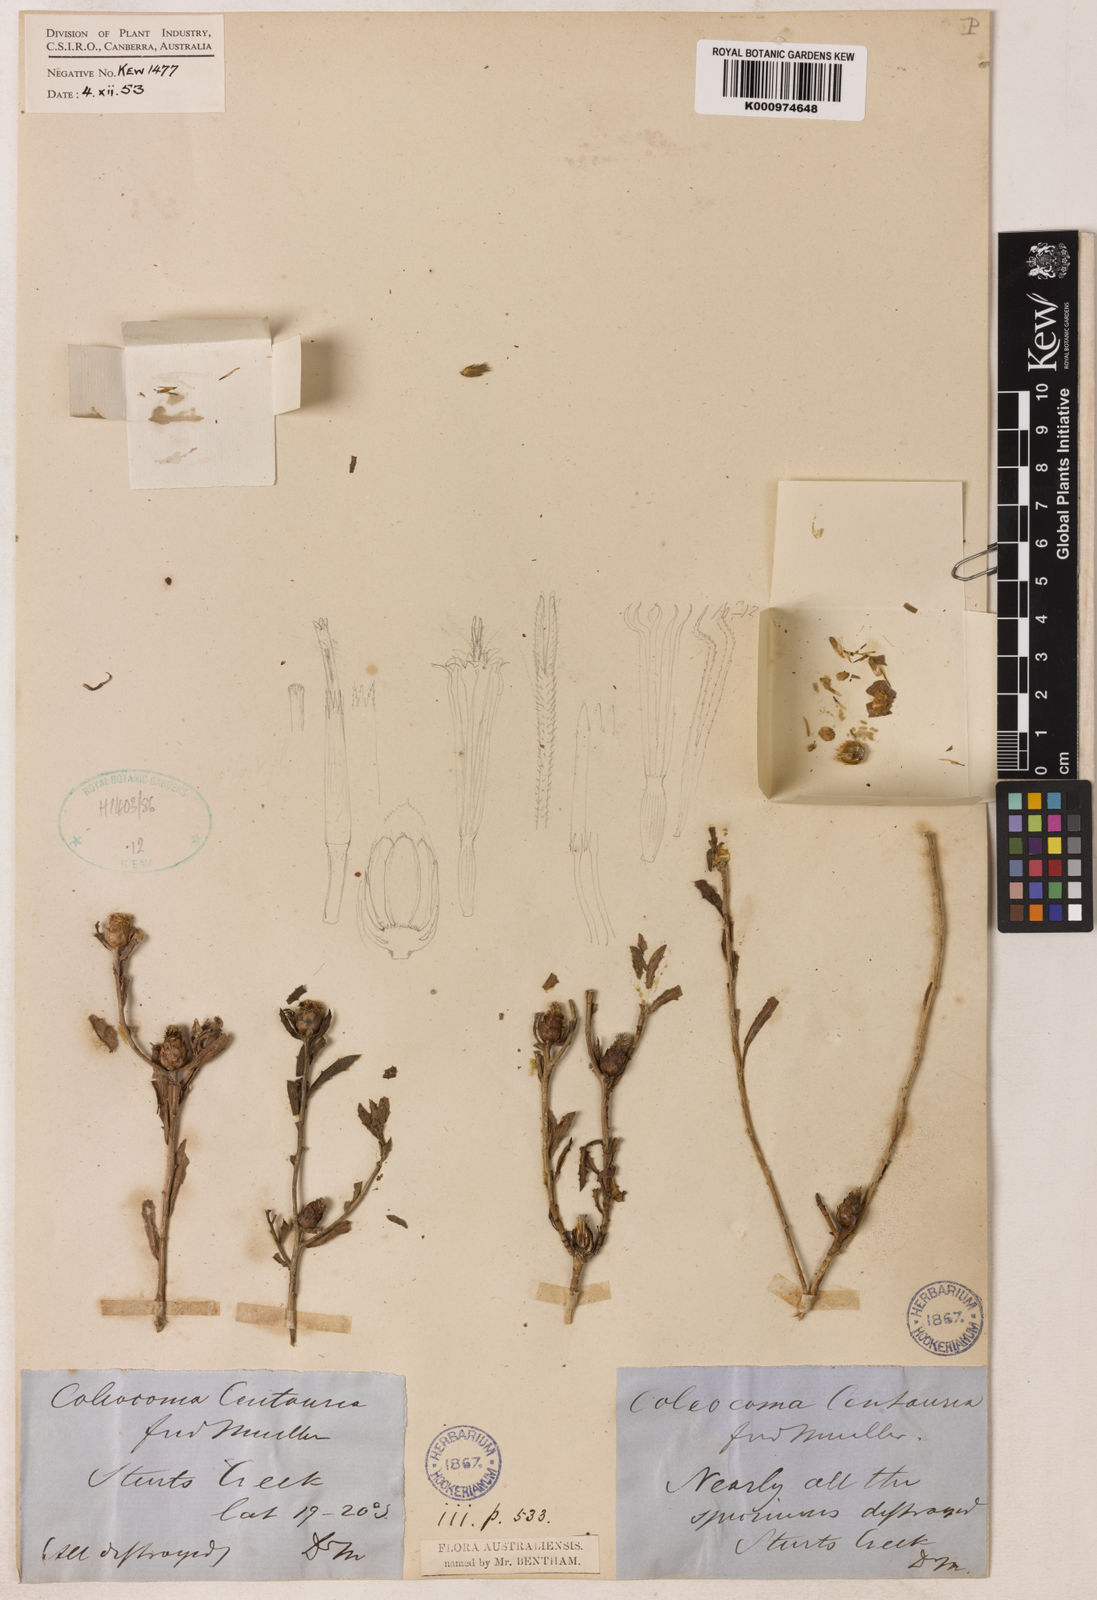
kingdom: Plantae
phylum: Tracheophyta
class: Magnoliopsida
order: Asterales
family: Asteraceae
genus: Coleocoma
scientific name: Coleocoma centaurea
